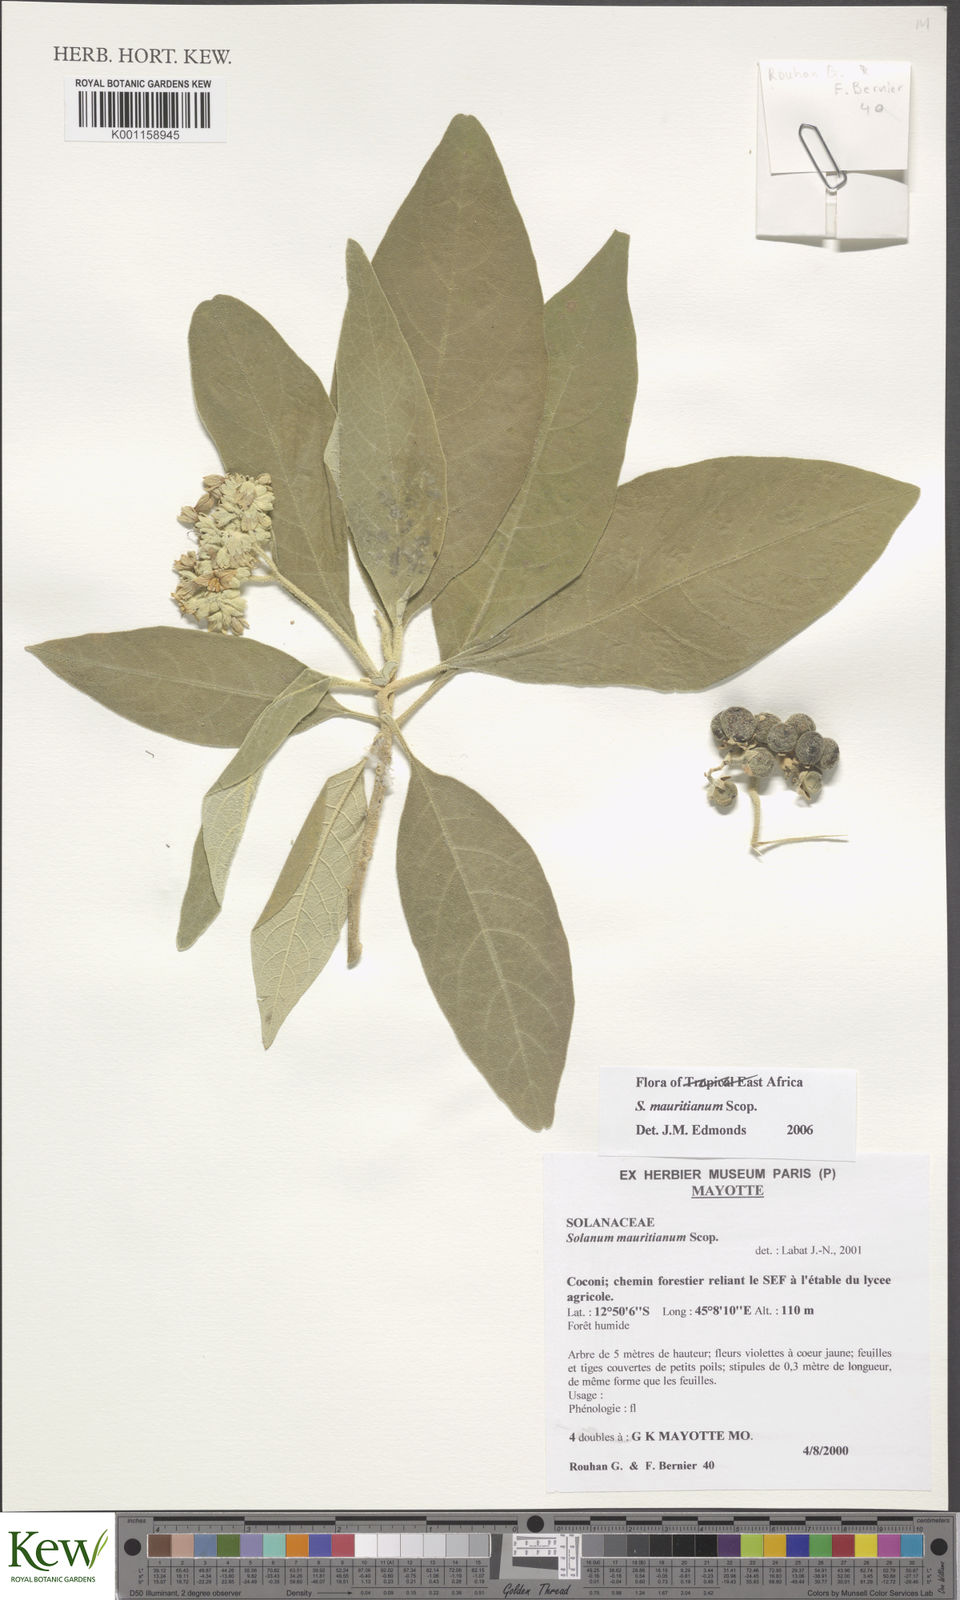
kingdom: Plantae
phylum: Tracheophyta
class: Magnoliopsida
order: Solanales
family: Solanaceae
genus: Solanum
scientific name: Solanum mauritianum
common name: Earleaf nightshade
